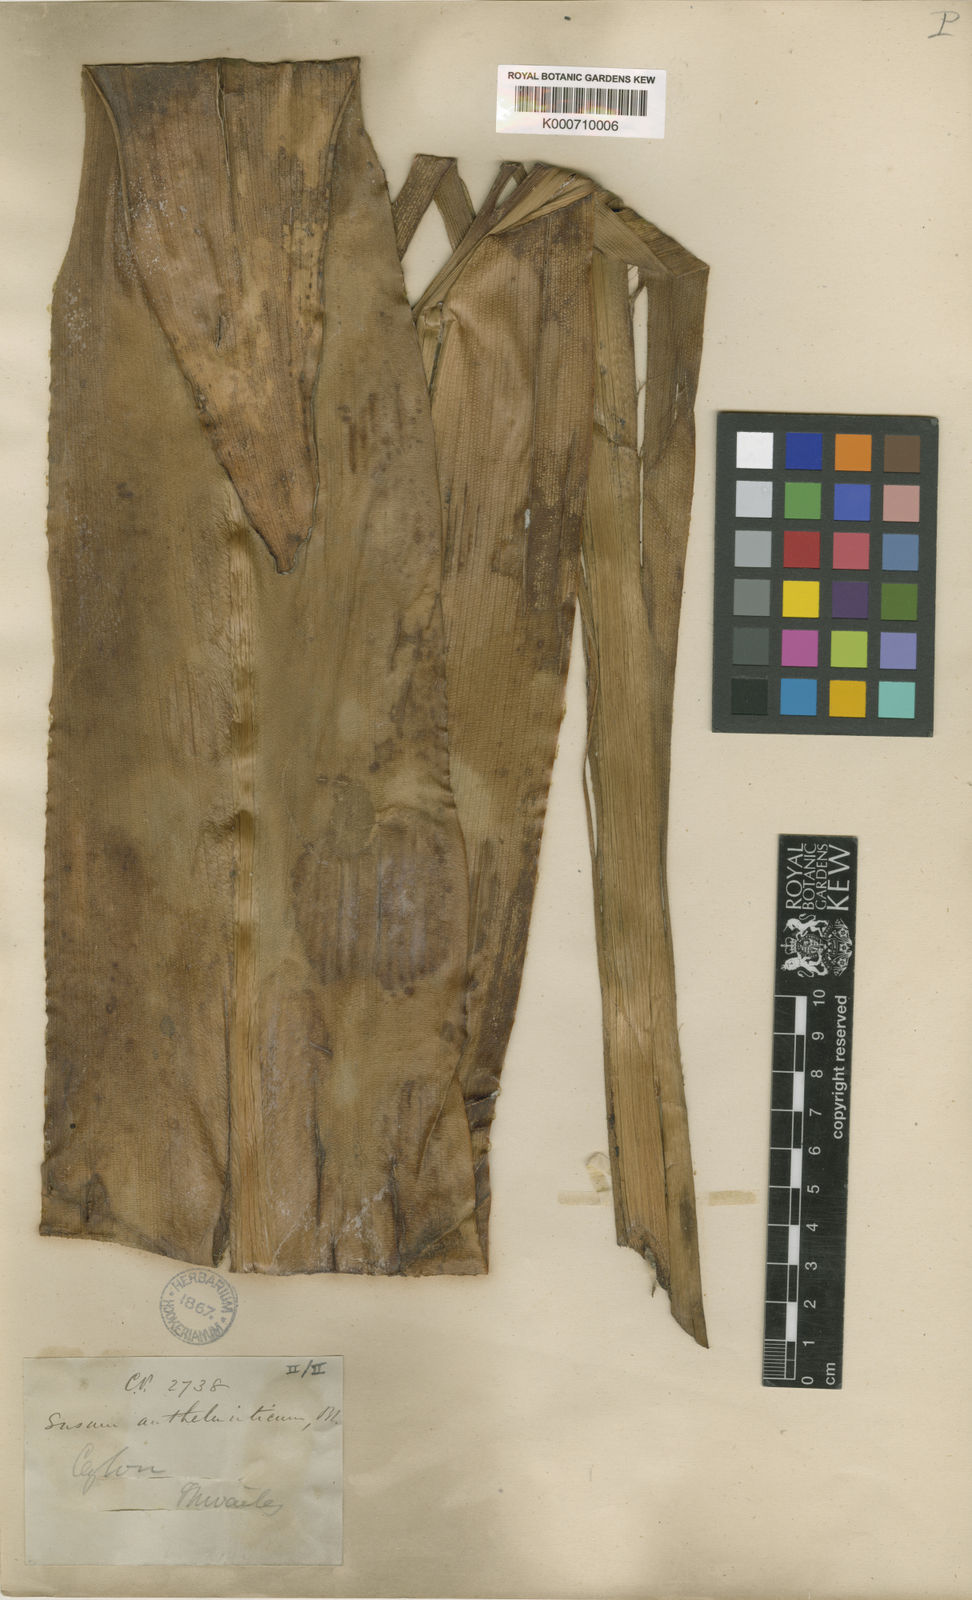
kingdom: Plantae
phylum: Tracheophyta
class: Liliopsida
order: Commelinales
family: Hanguanaceae
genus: Hanguana
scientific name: Hanguana malayana
